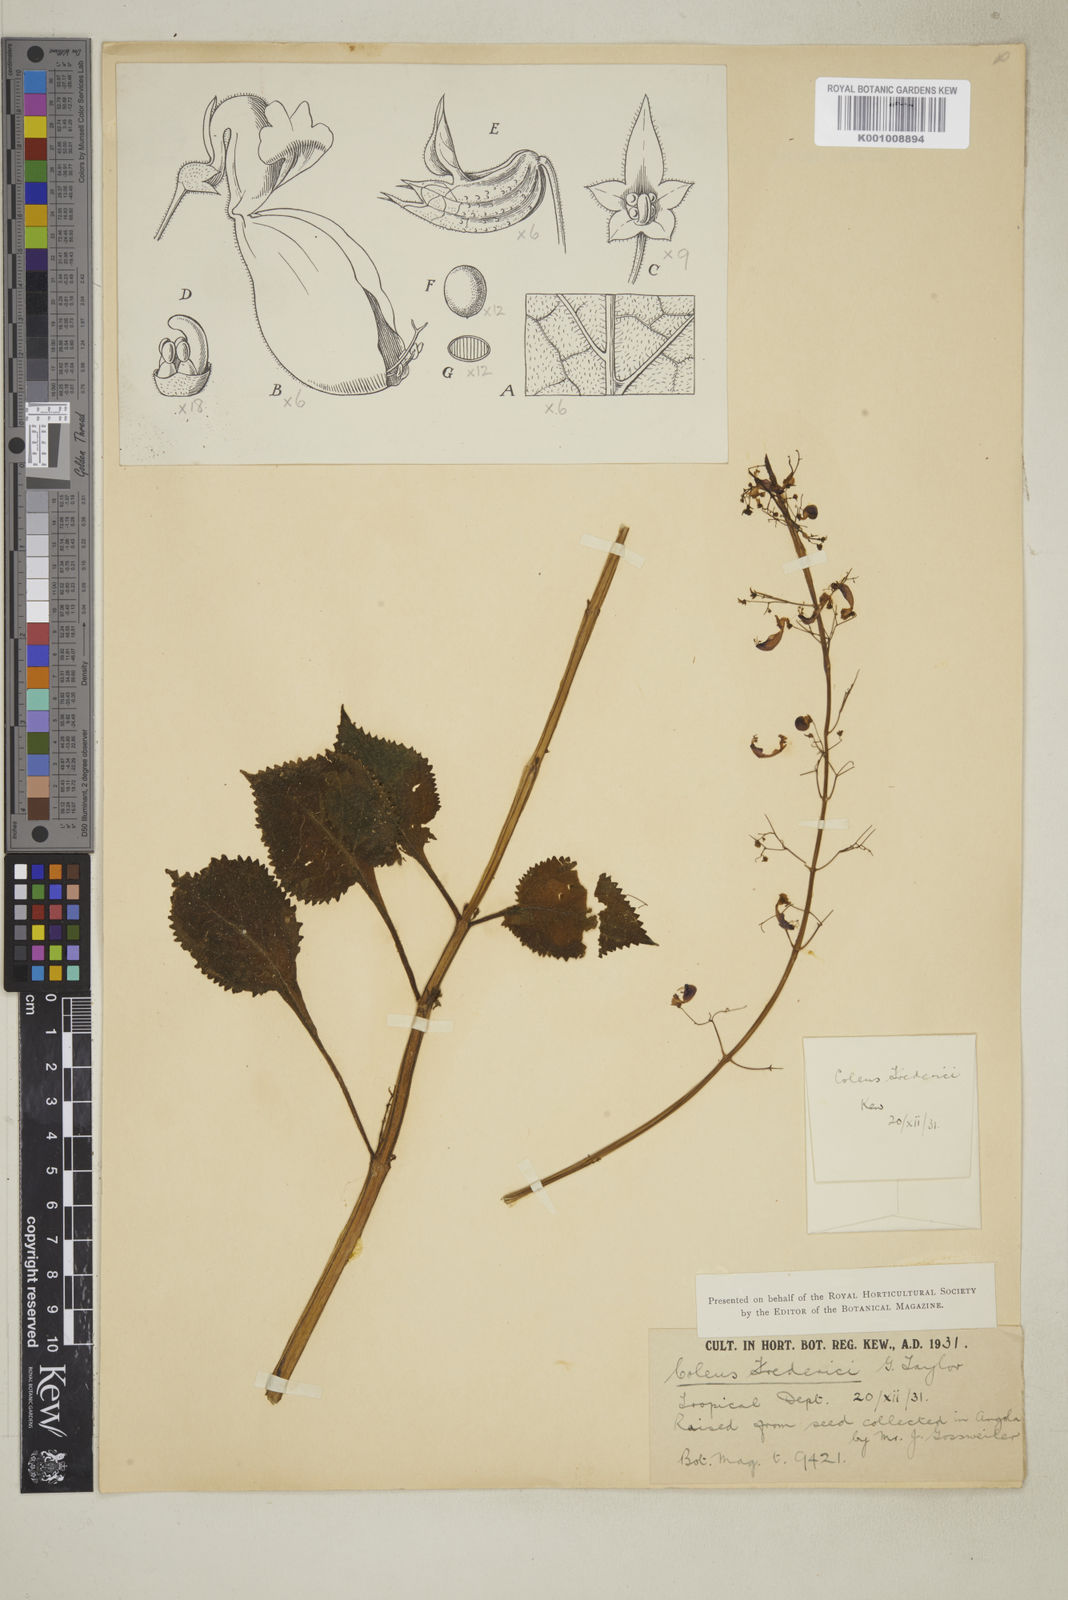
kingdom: Plantae
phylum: Tracheophyta
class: Magnoliopsida
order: Lamiales
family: Lamiaceae
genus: Plectranthus
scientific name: Plectranthus
